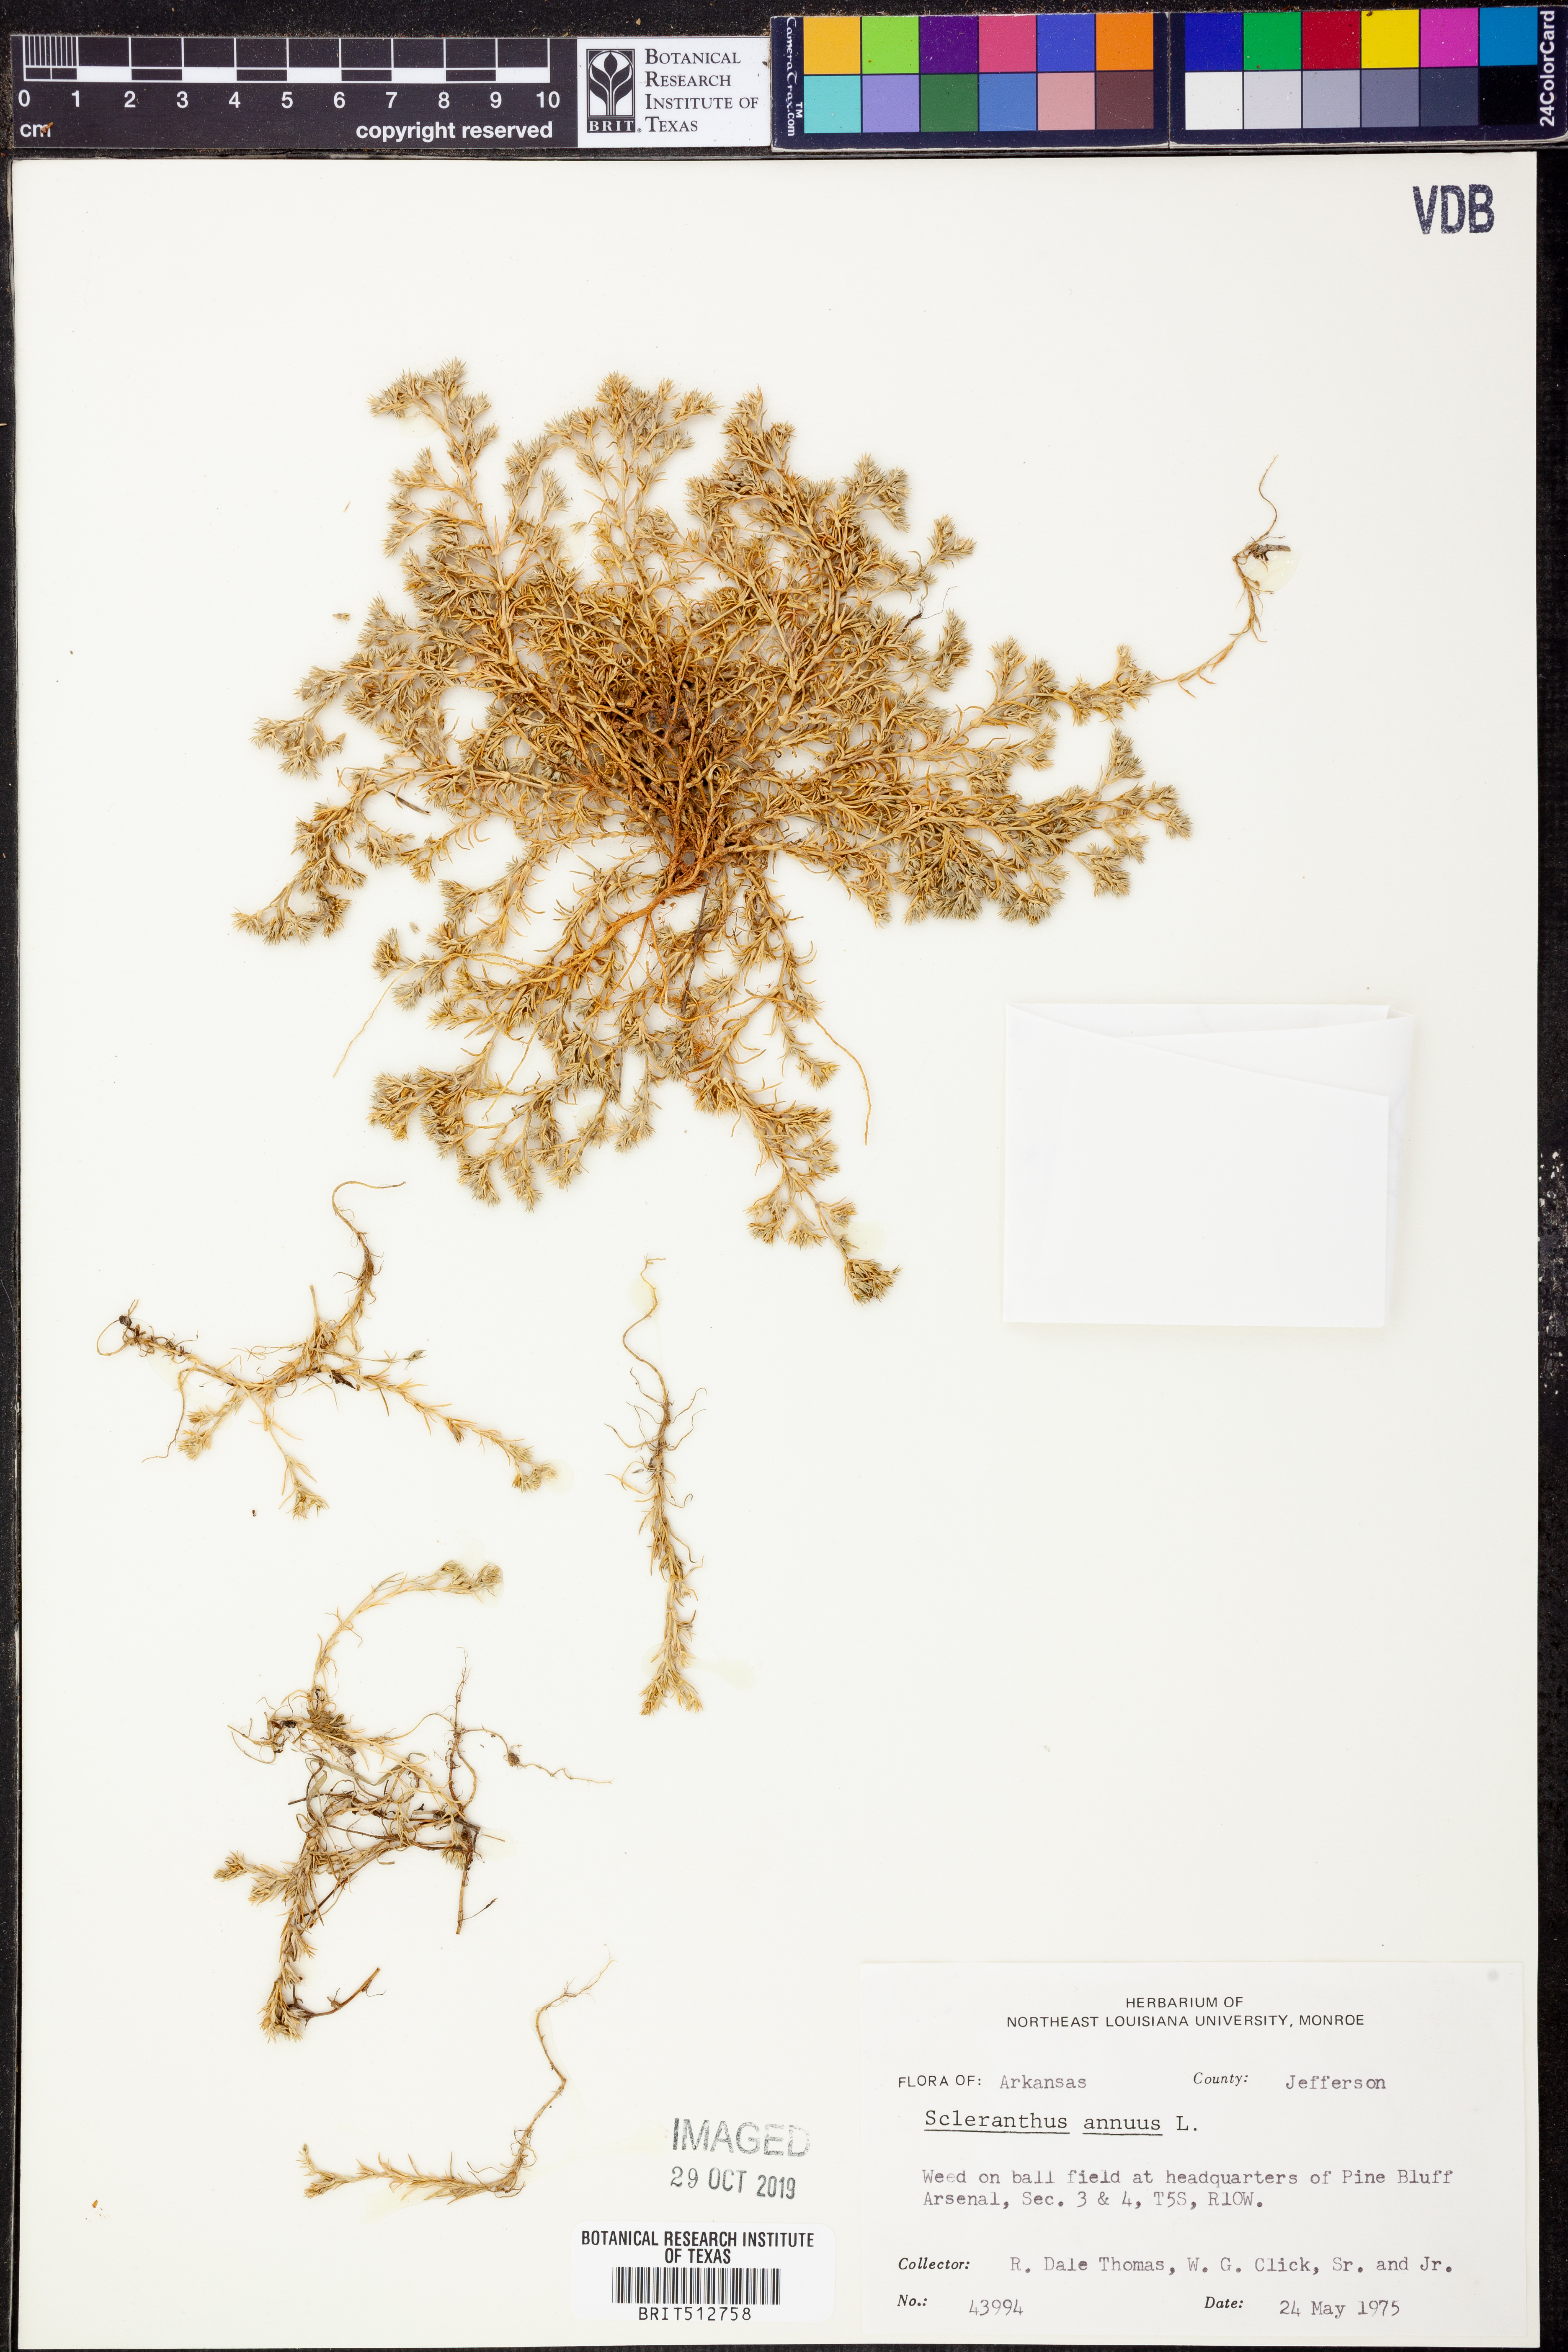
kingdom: Plantae
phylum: Tracheophyta
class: Magnoliopsida
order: Caryophyllales
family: Caryophyllaceae
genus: Scleranthus
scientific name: Scleranthus annuus
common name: Annual knawel
